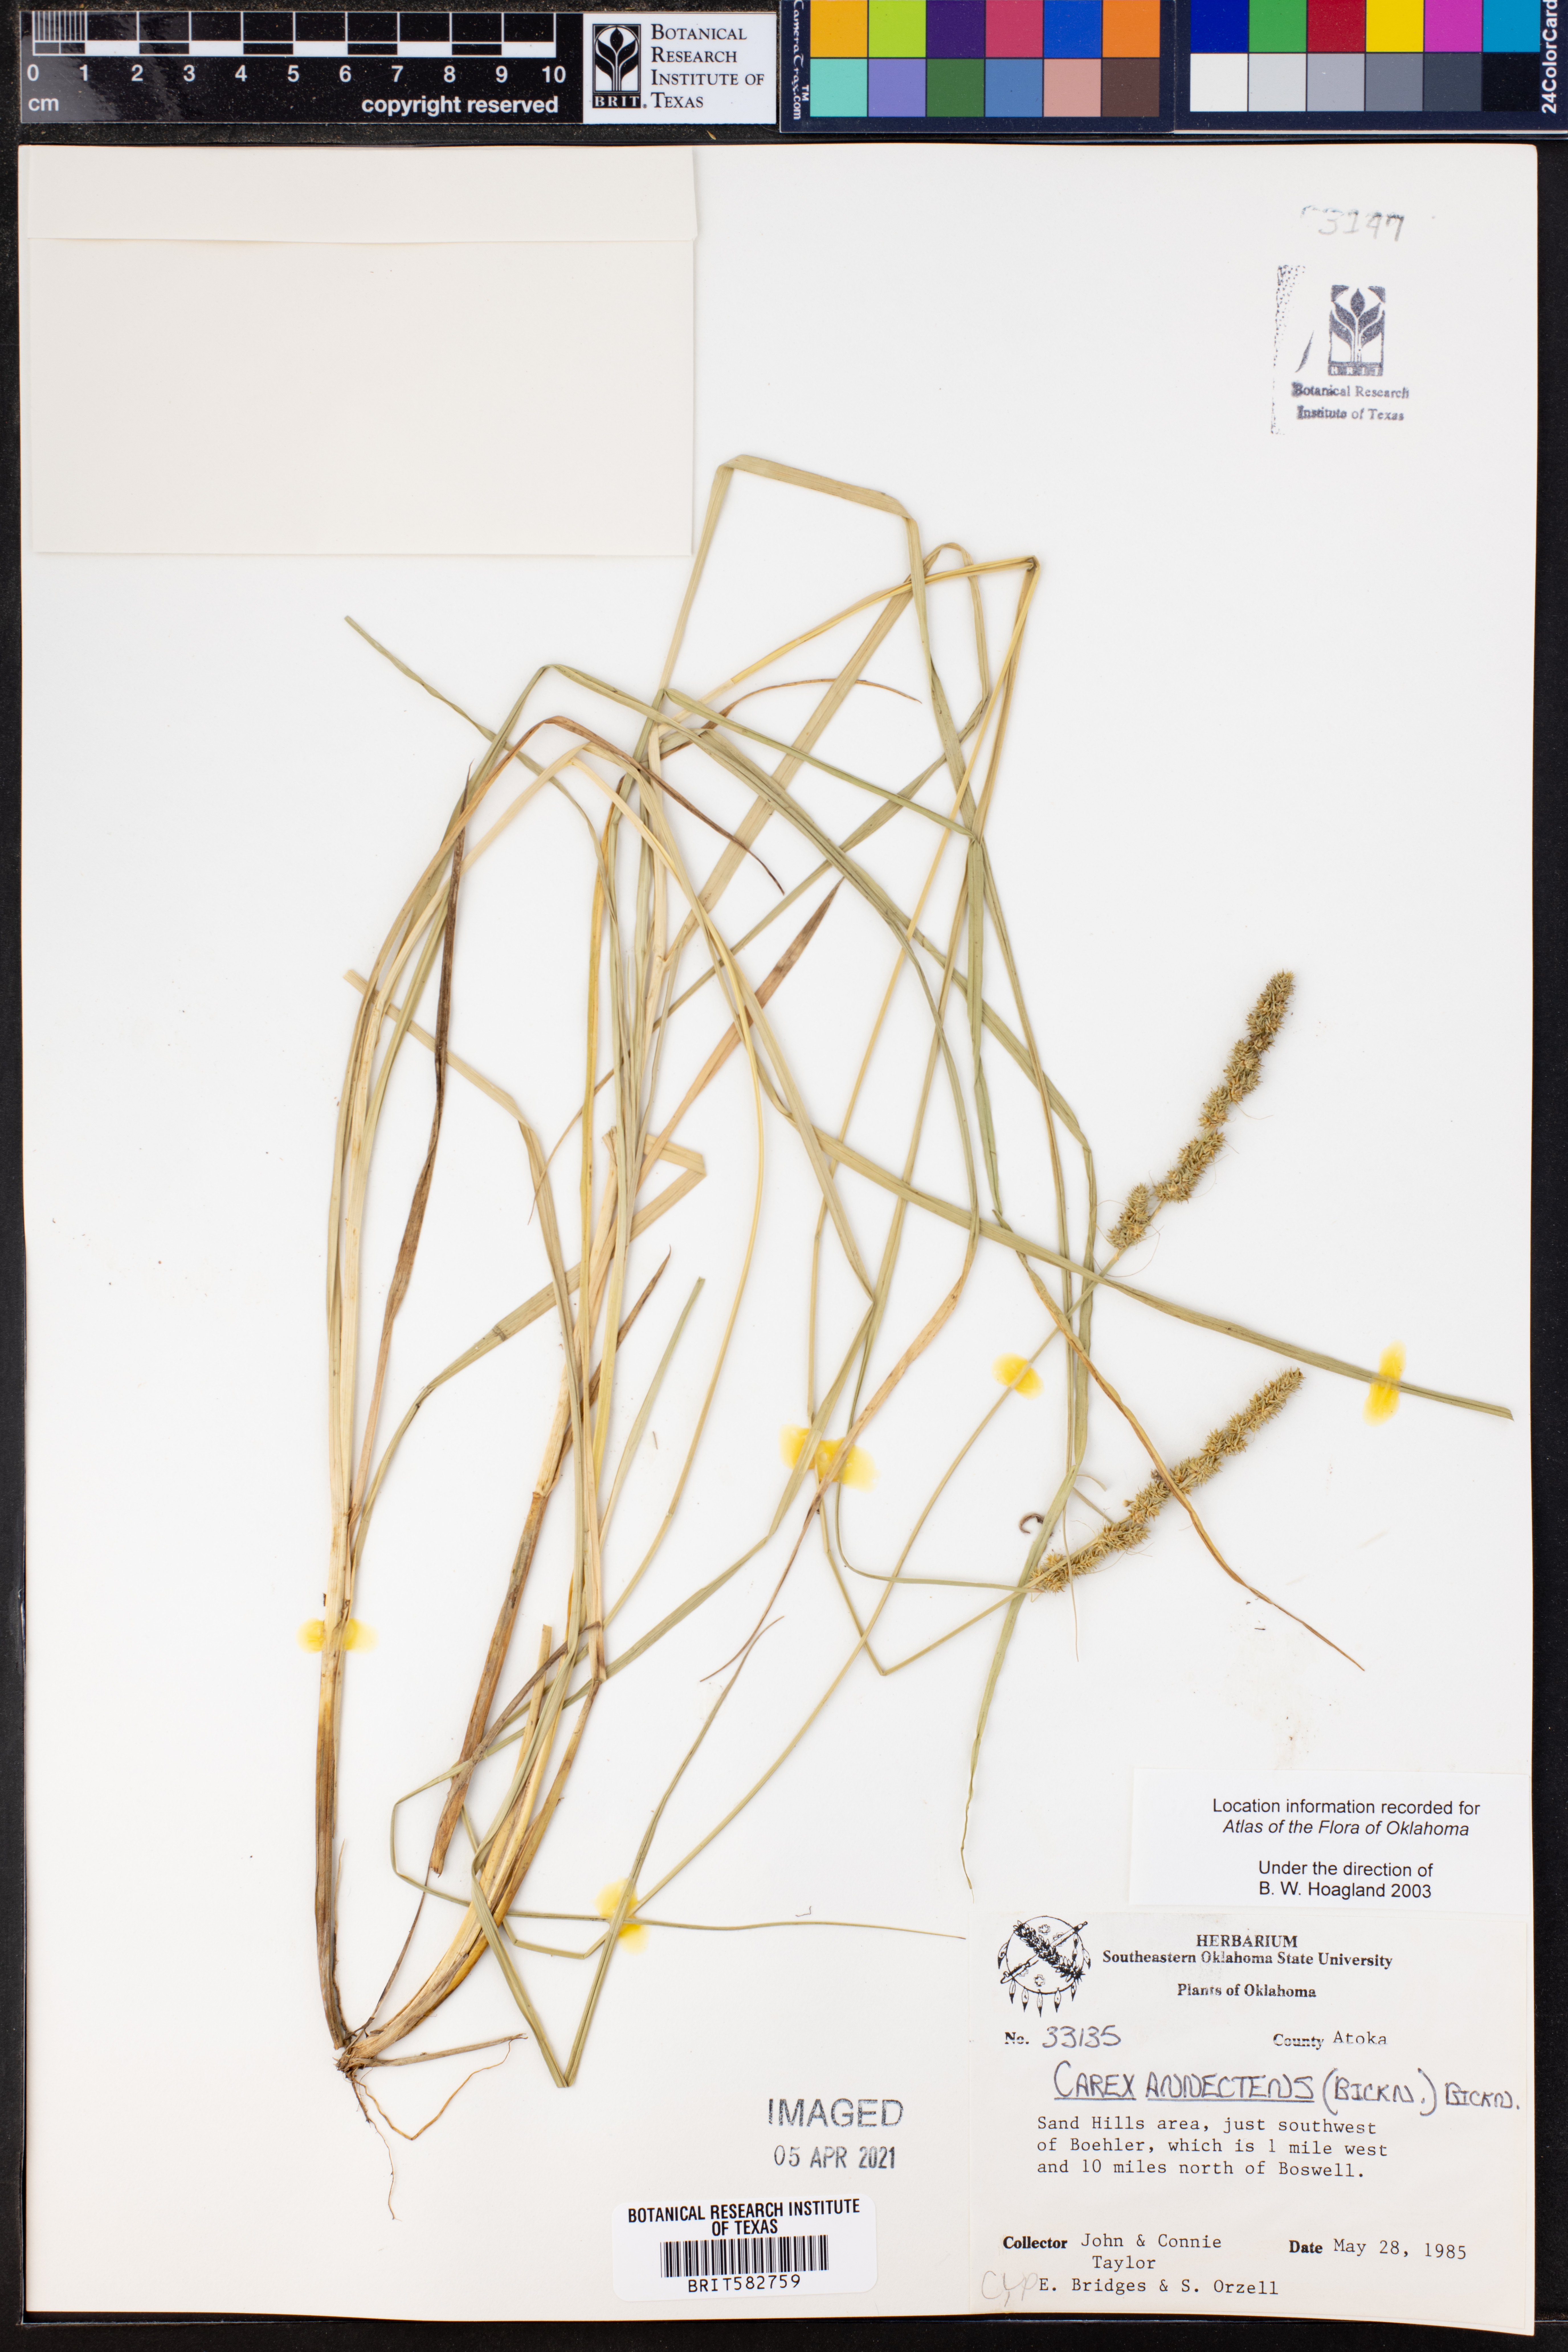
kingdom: Plantae
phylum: Tracheophyta
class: Liliopsida
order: Poales
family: Cyperaceae
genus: Carex
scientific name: Carex annectens
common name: Large fox sedge
